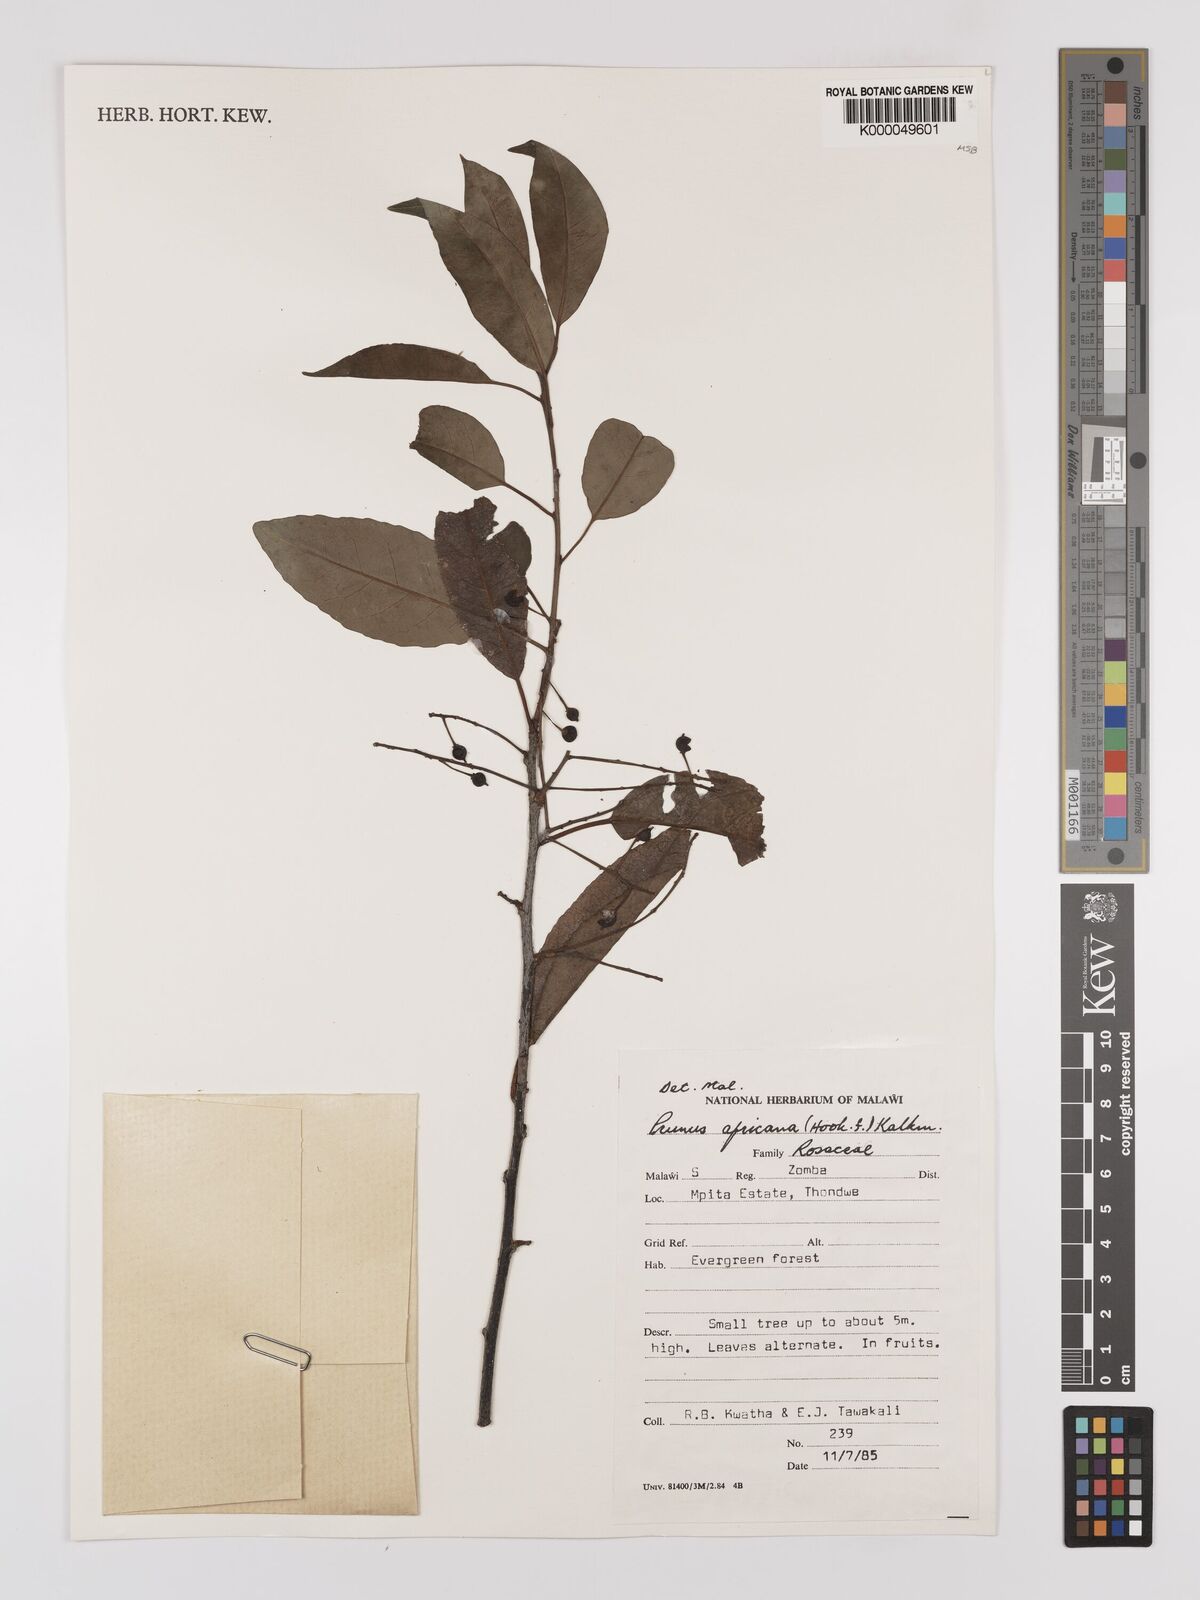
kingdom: Plantae
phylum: Tracheophyta
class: Magnoliopsida
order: Rosales
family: Rosaceae
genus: Prunus
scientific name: Prunus africana
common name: African cherry
